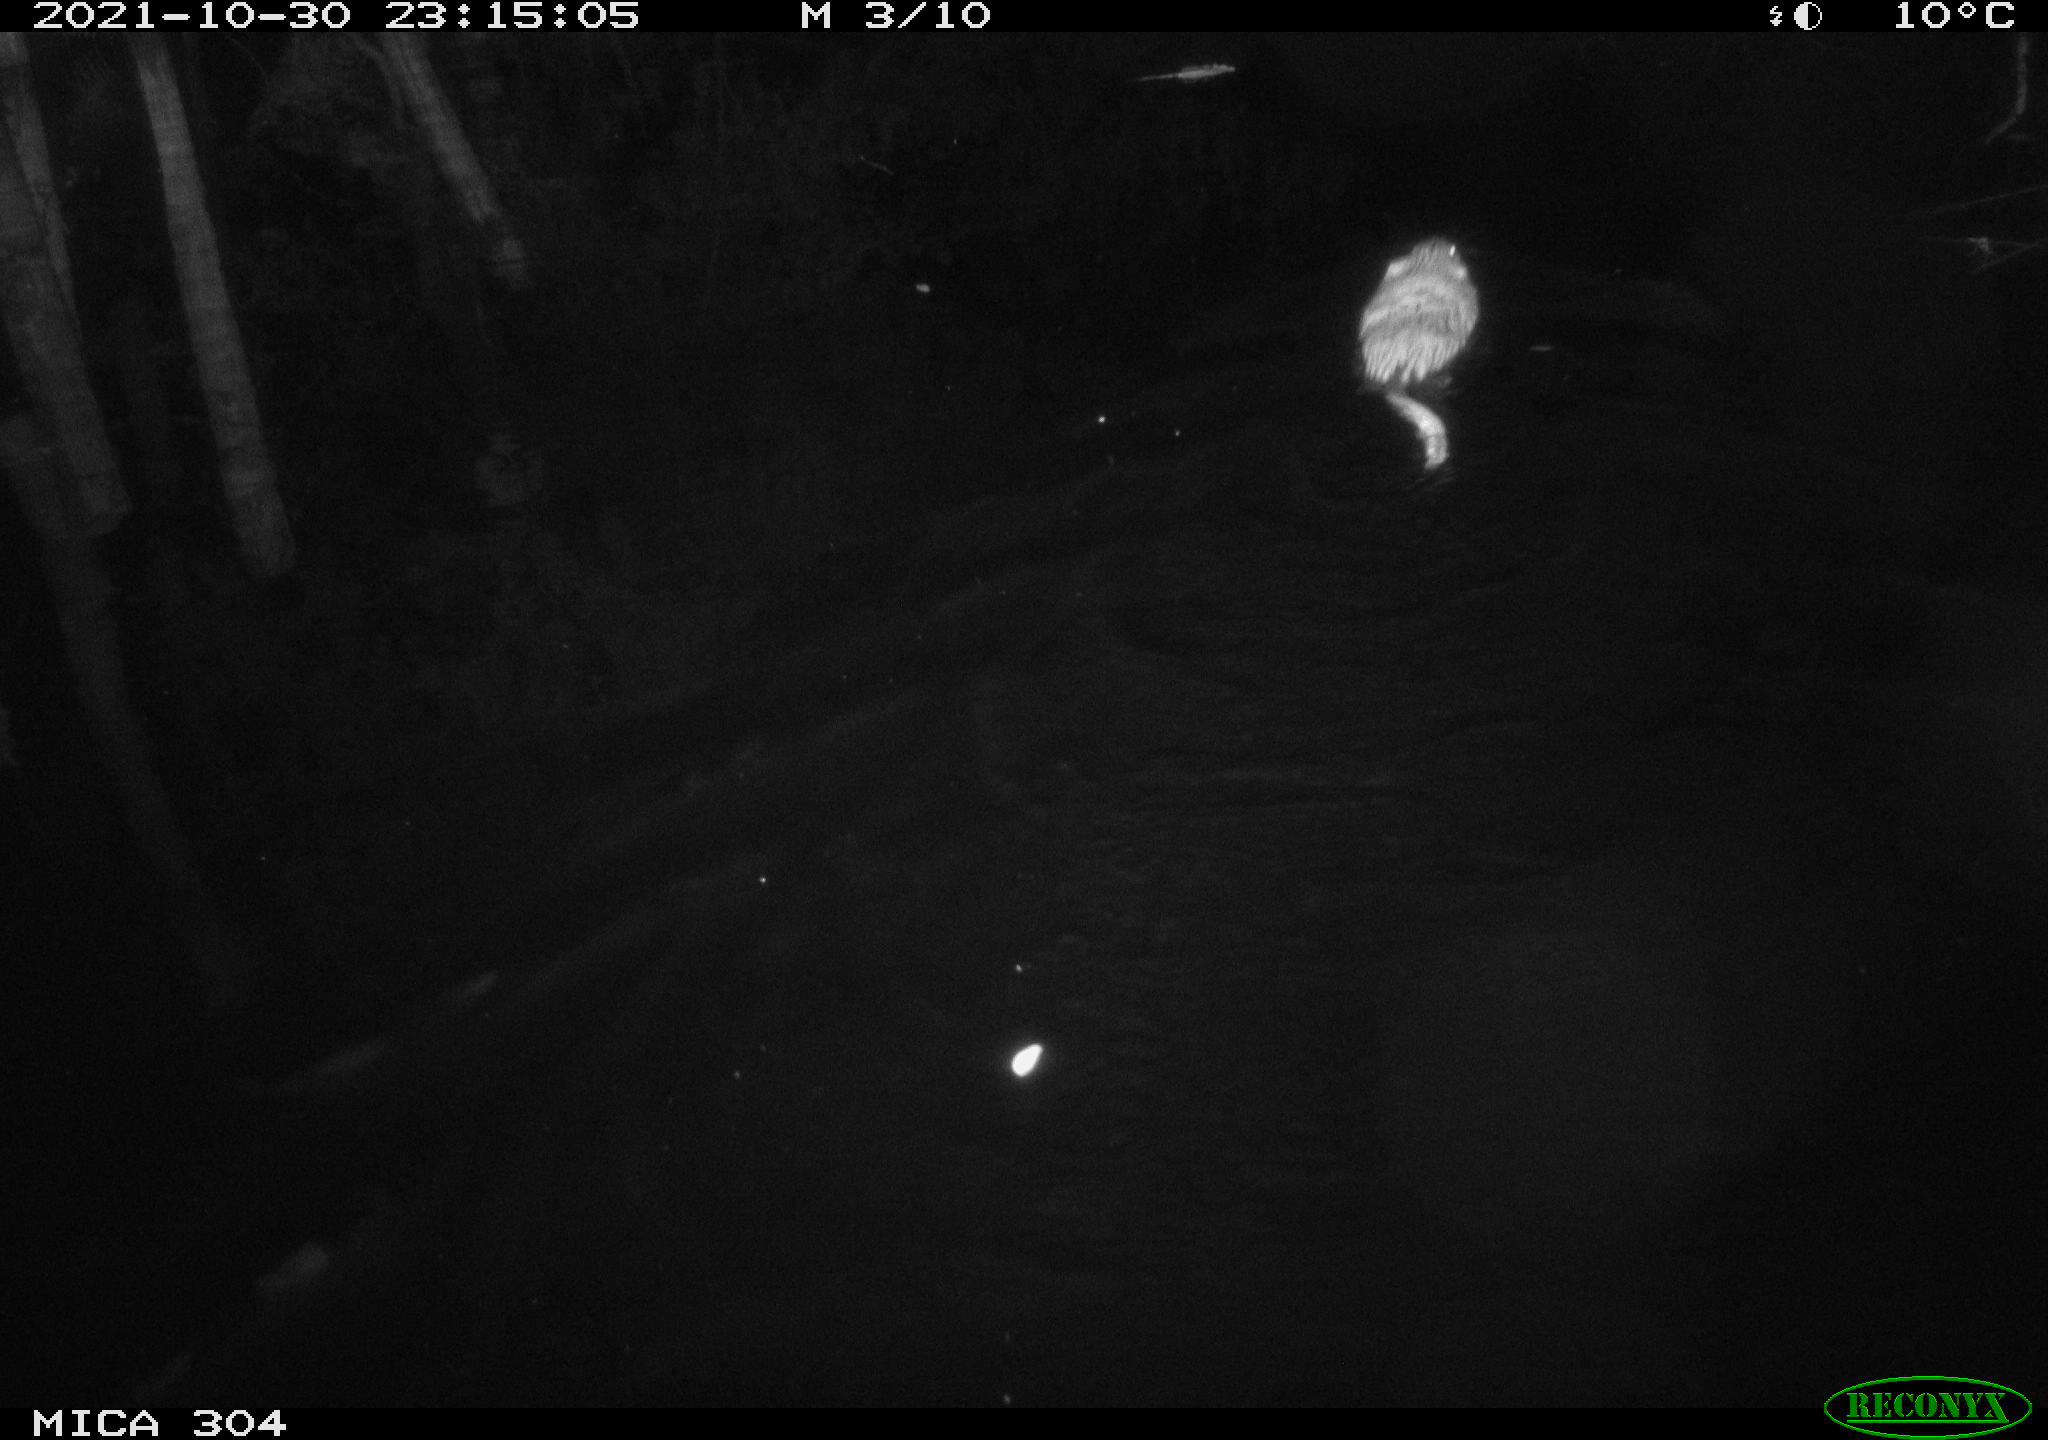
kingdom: Animalia
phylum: Chordata
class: Mammalia
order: Rodentia
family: Cricetidae
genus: Ondatra
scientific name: Ondatra zibethicus
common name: Muskrat
